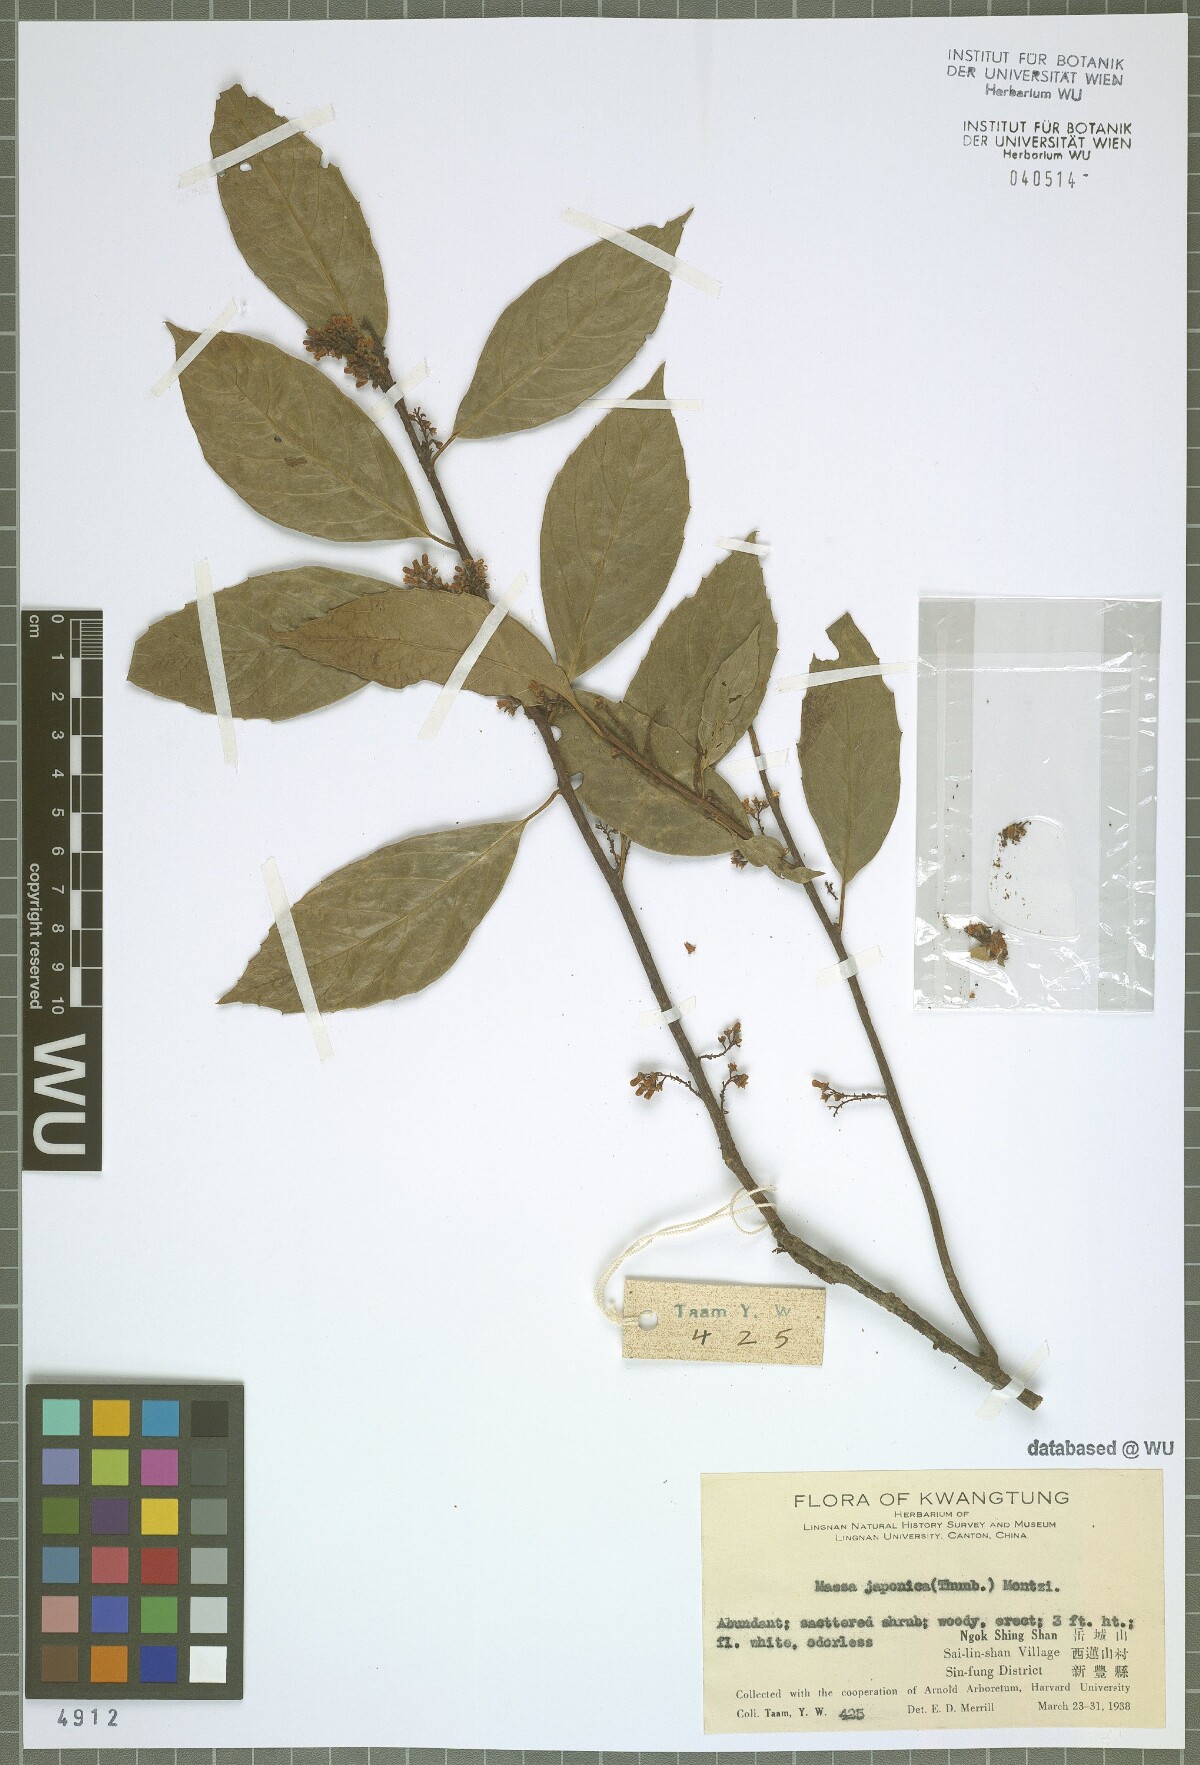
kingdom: Plantae
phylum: Tracheophyta
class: Magnoliopsida
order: Ericales
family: Primulaceae
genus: Maesa
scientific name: Maesa japonica
